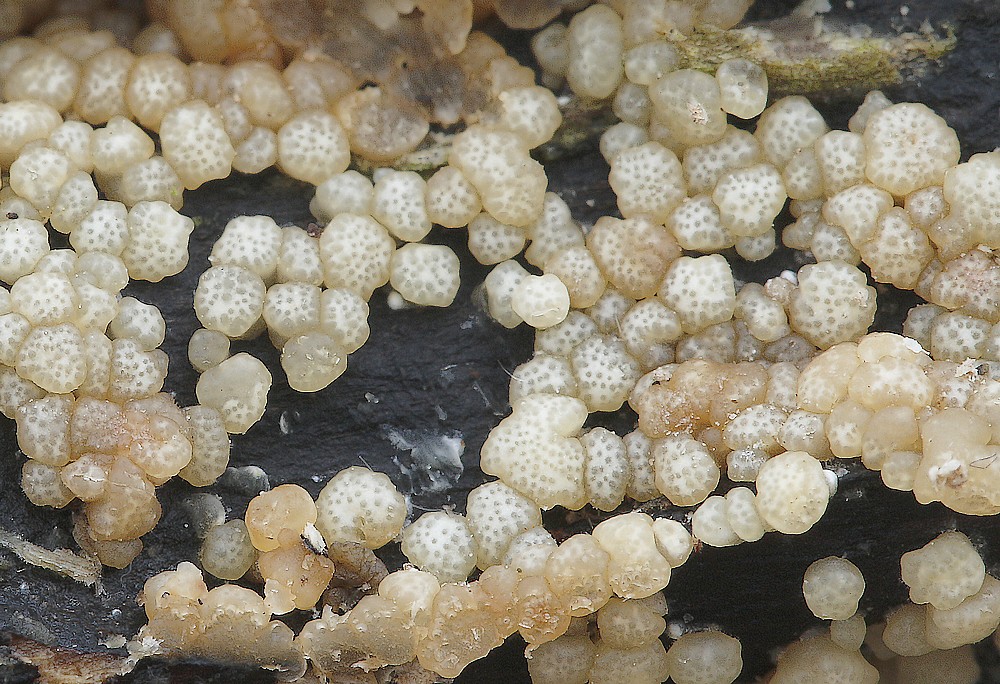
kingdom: Fungi
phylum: Ascomycota
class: Sordariomycetes
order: Hypocreales
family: Hypocreaceae
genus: Trichoderma
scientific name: Trichoderma
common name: kødkerne
